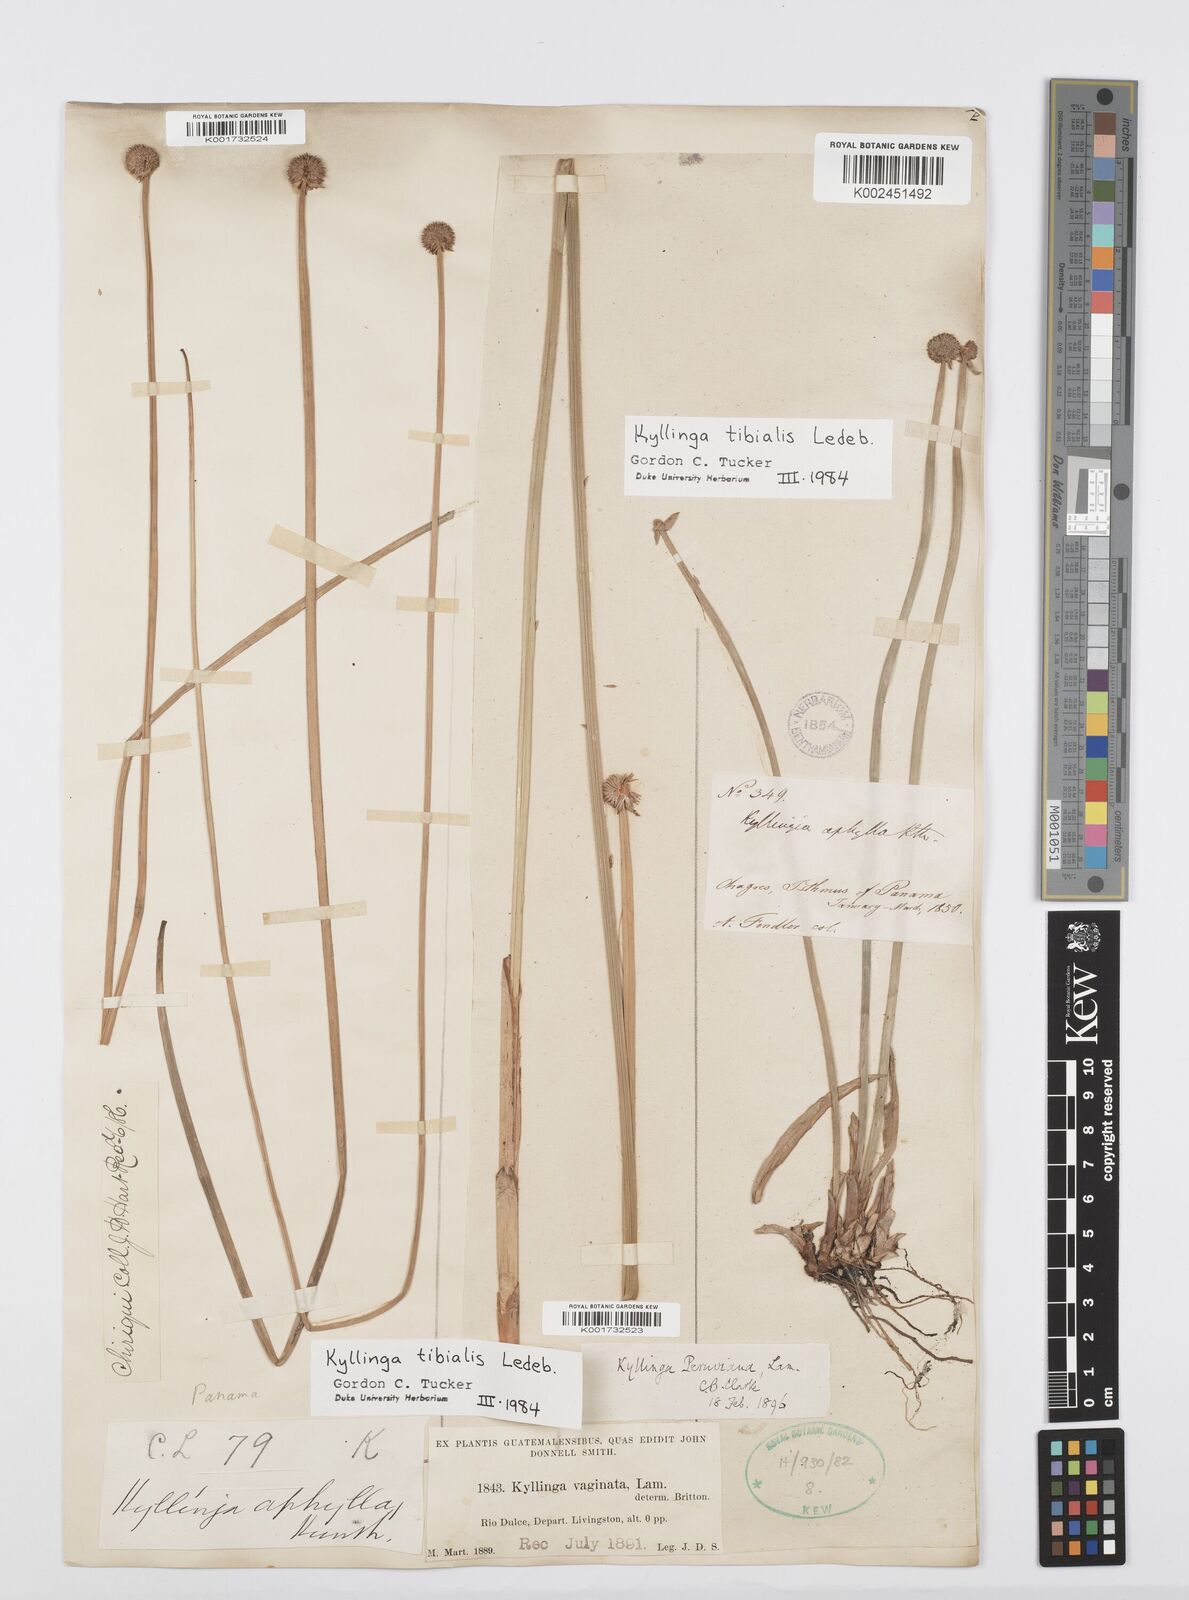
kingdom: Plantae
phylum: Tracheophyta
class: Liliopsida
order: Poales
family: Cyperaceae
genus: Cyperus
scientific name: Cyperus obtusatus
